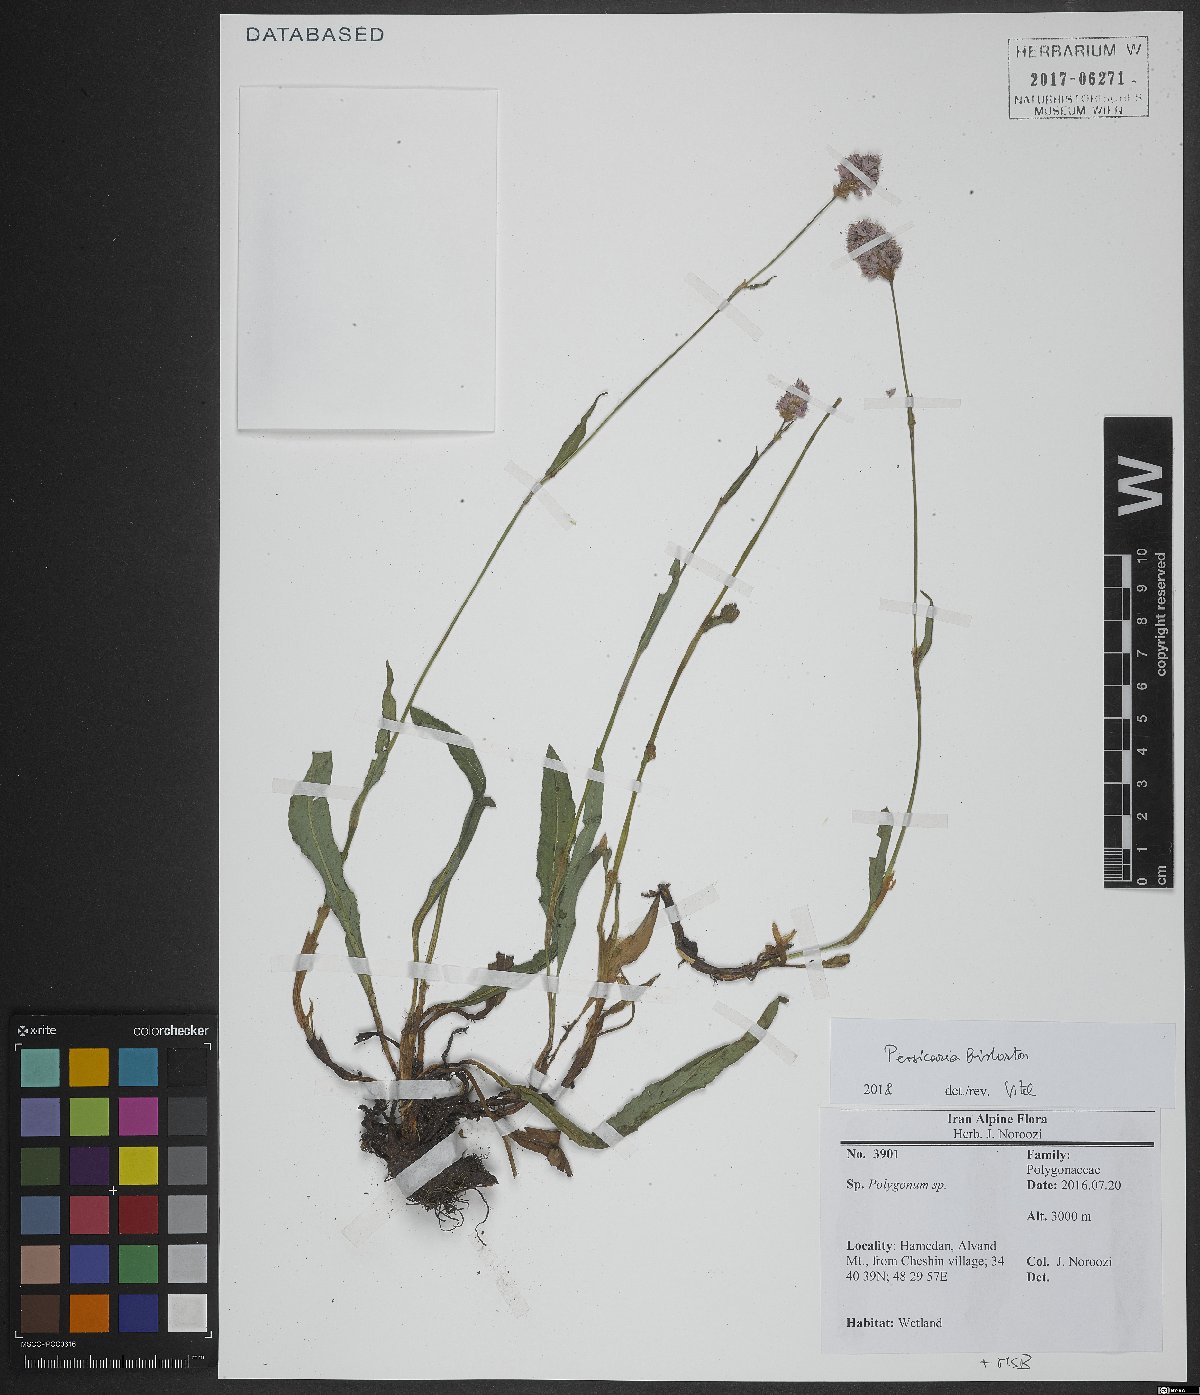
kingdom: Plantae
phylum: Tracheophyta
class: Magnoliopsida
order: Caryophyllales
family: Polygonaceae
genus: Bistorta
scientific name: Bistorta officinalis
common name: Common bistort
